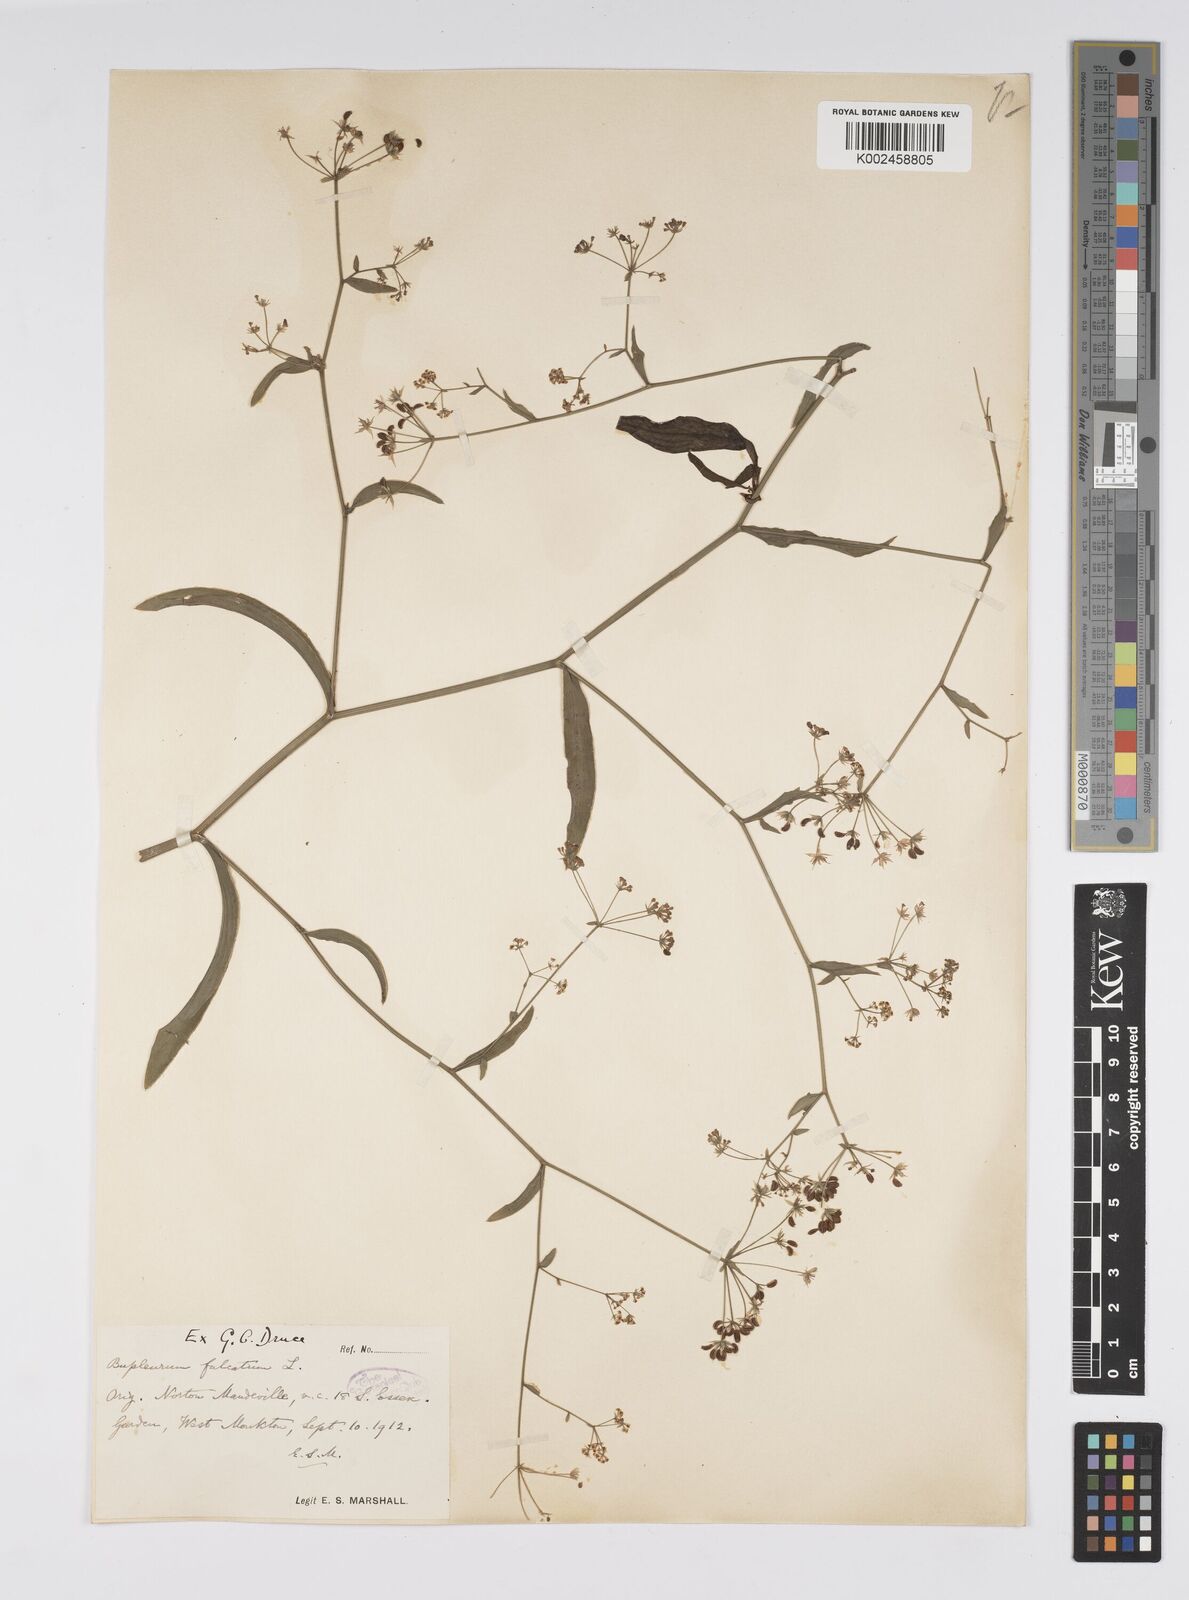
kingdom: Plantae
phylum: Tracheophyta
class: Magnoliopsida
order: Apiales
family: Apiaceae
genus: Bupleurum
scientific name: Bupleurum falcatum
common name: Sickle-leaved hare's-ear
